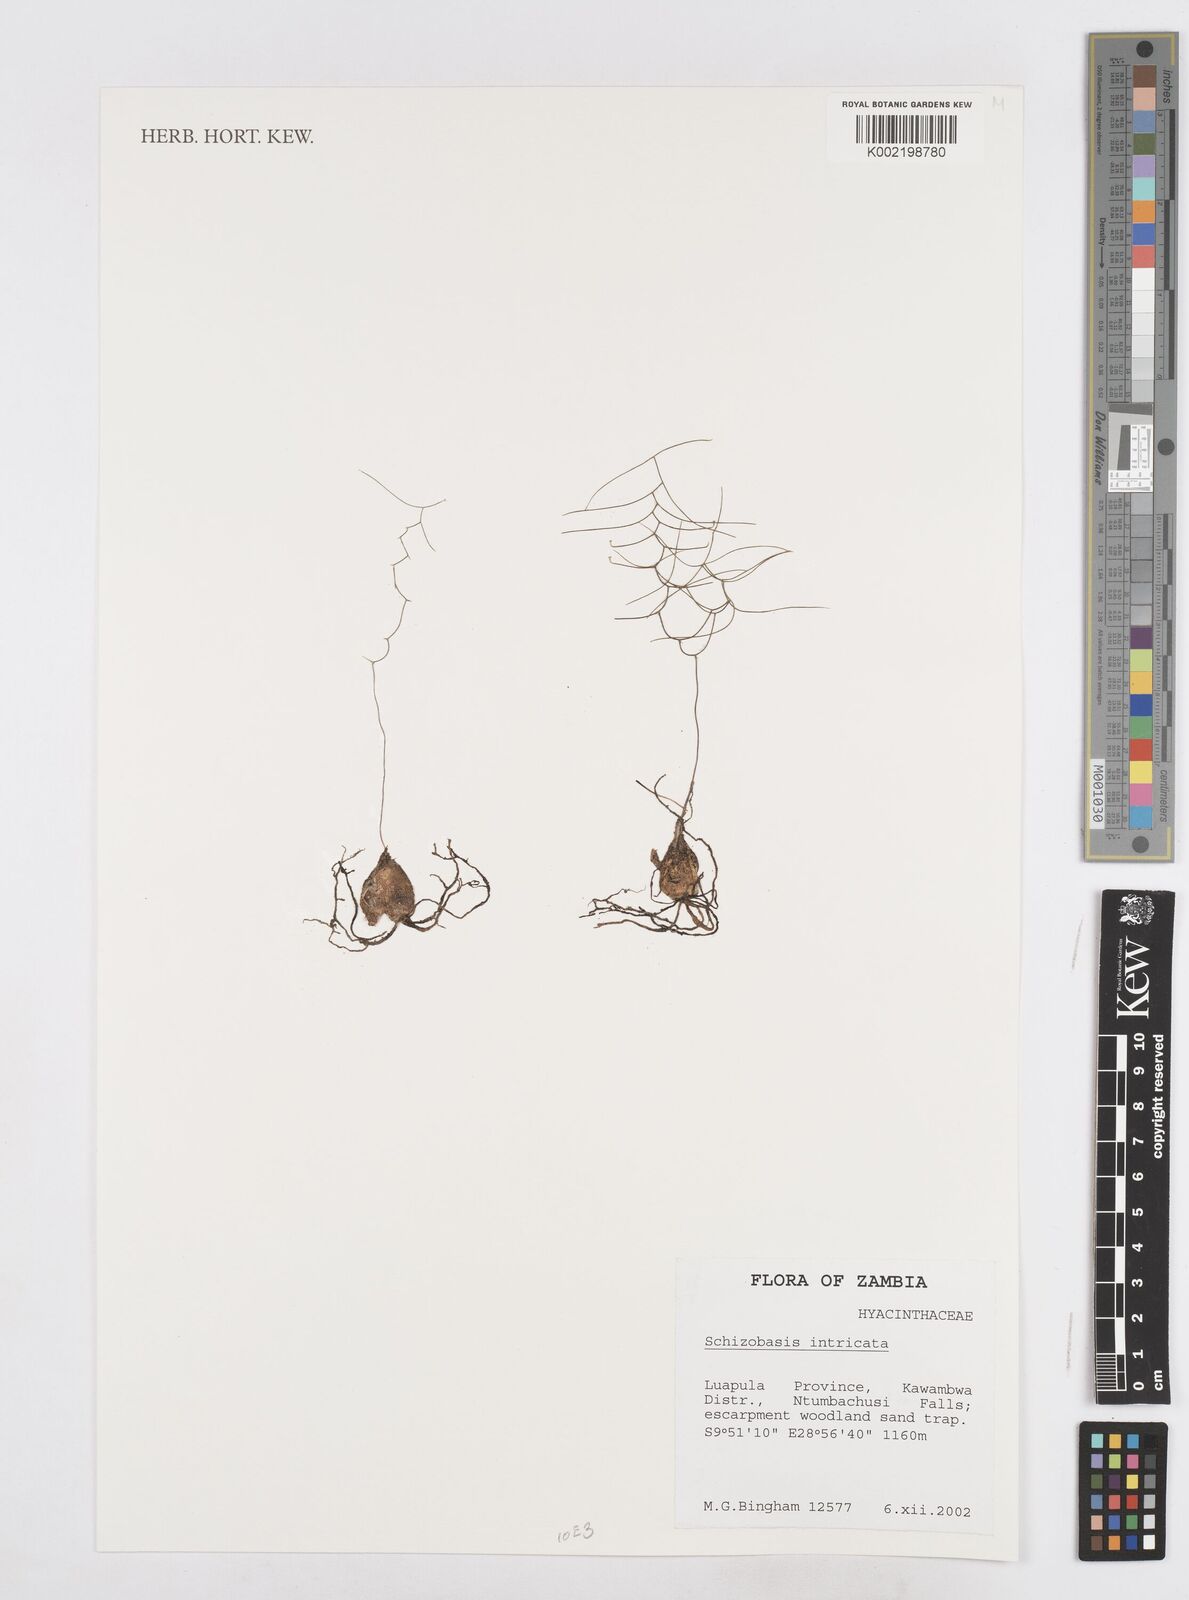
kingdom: Plantae
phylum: Tracheophyta
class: Liliopsida
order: Asparagales
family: Asparagaceae
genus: Drimia
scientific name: Drimia intricata
